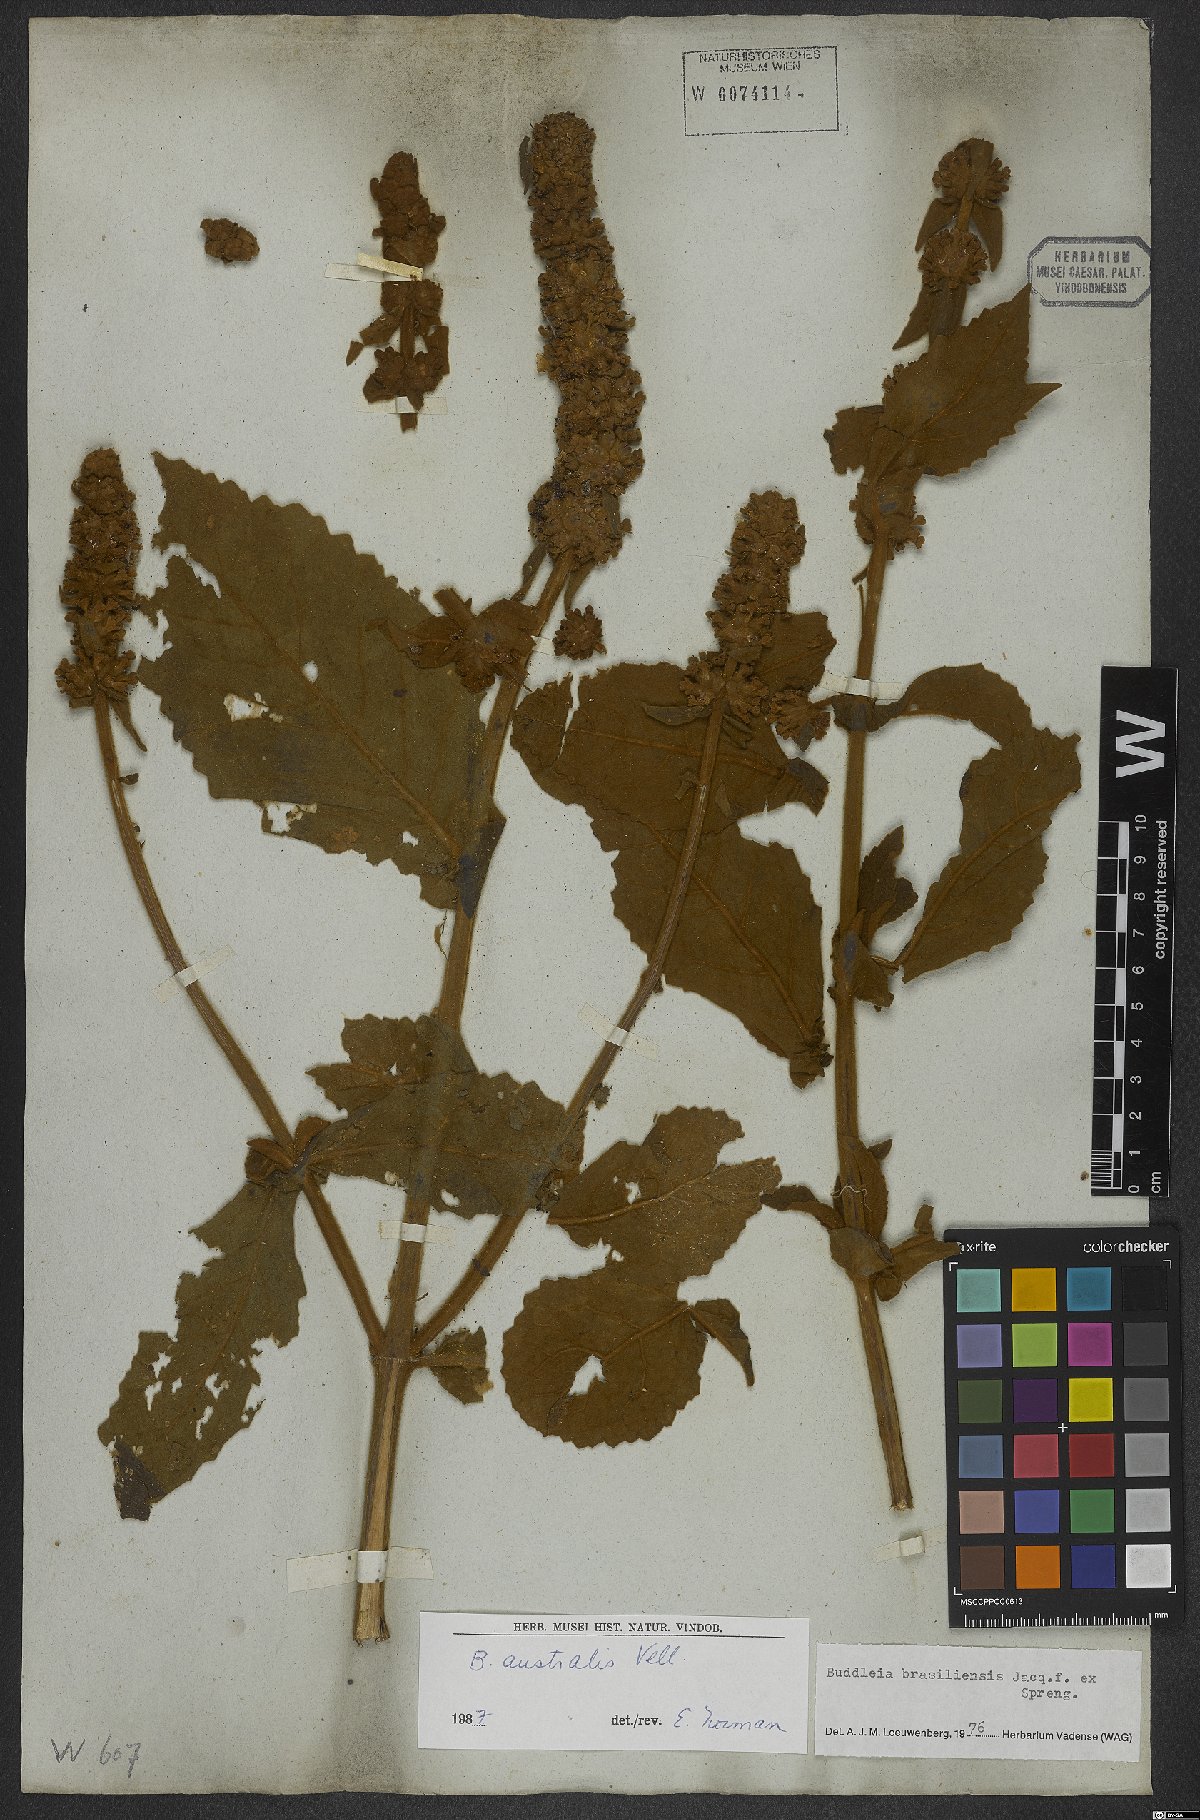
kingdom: Plantae
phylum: Tracheophyta
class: Magnoliopsida
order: Lamiales
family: Scrophulariaceae
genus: Buddleja
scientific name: Buddleja stachyoides
